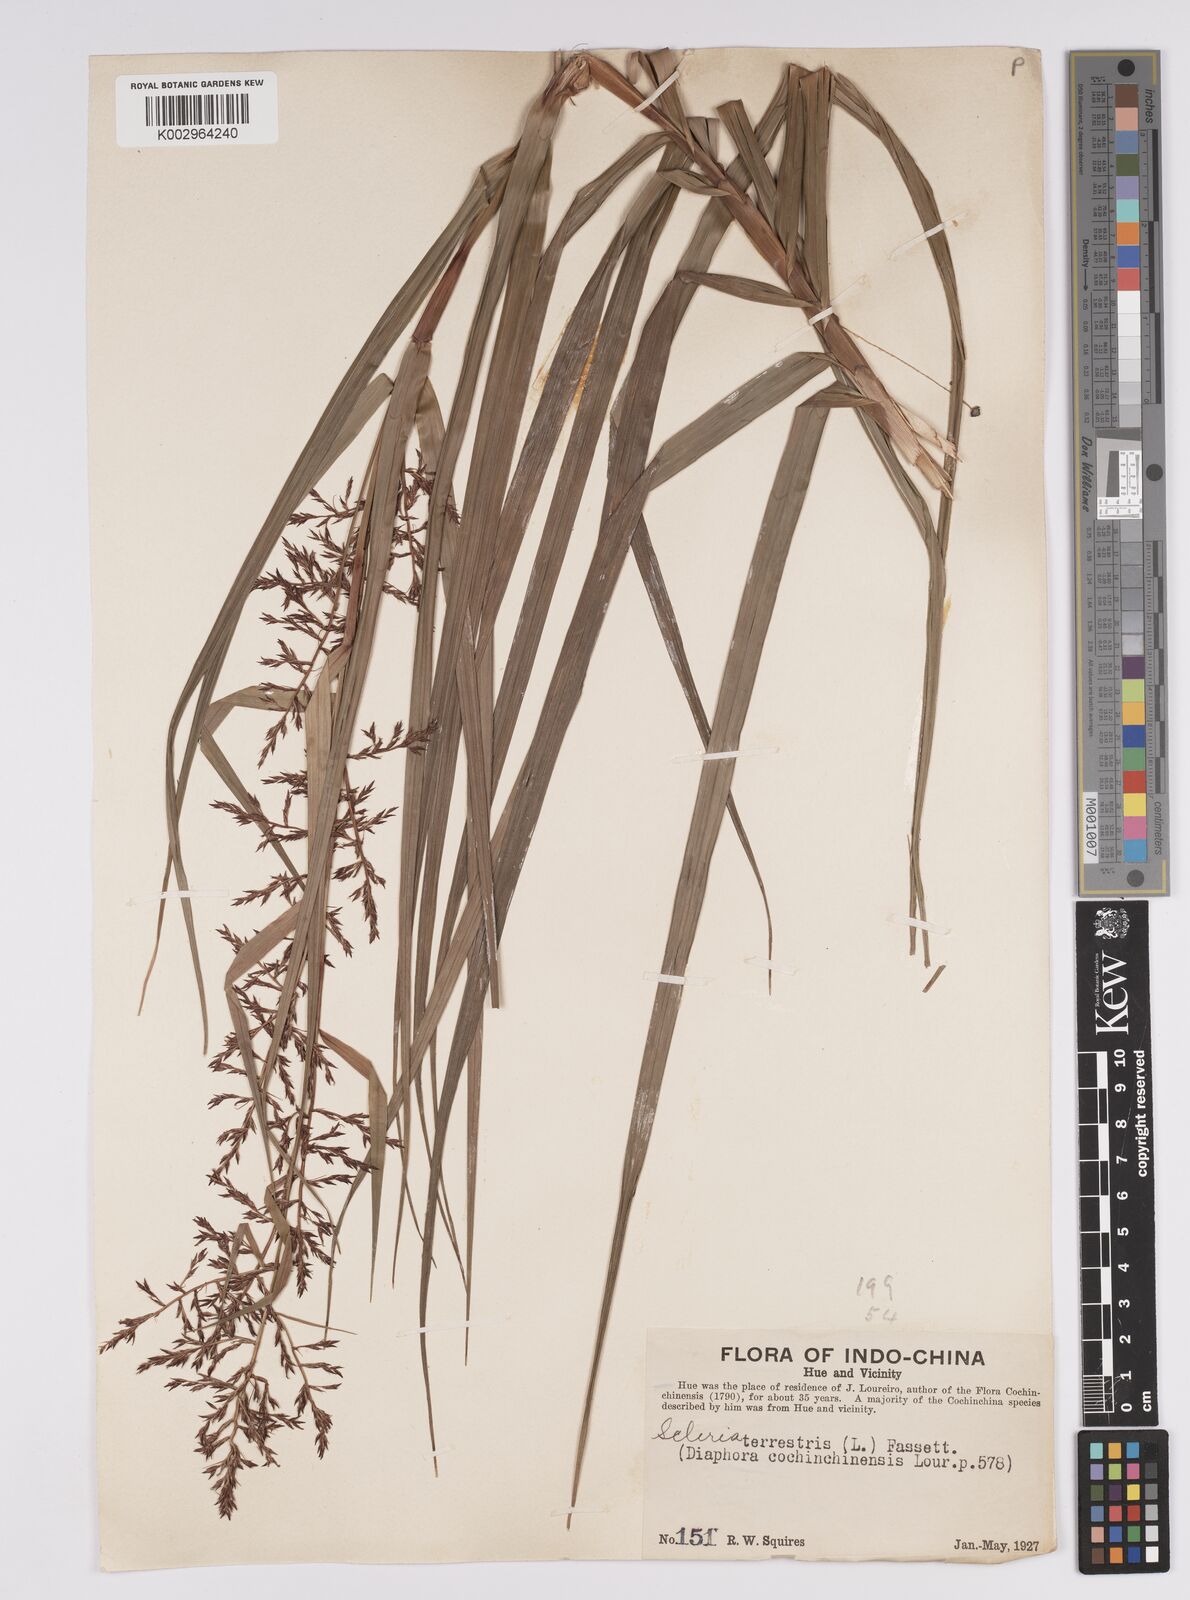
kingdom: Plantae
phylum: Tracheophyta
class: Liliopsida
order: Poales
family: Cyperaceae
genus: Scleria
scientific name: Scleria terrestris
